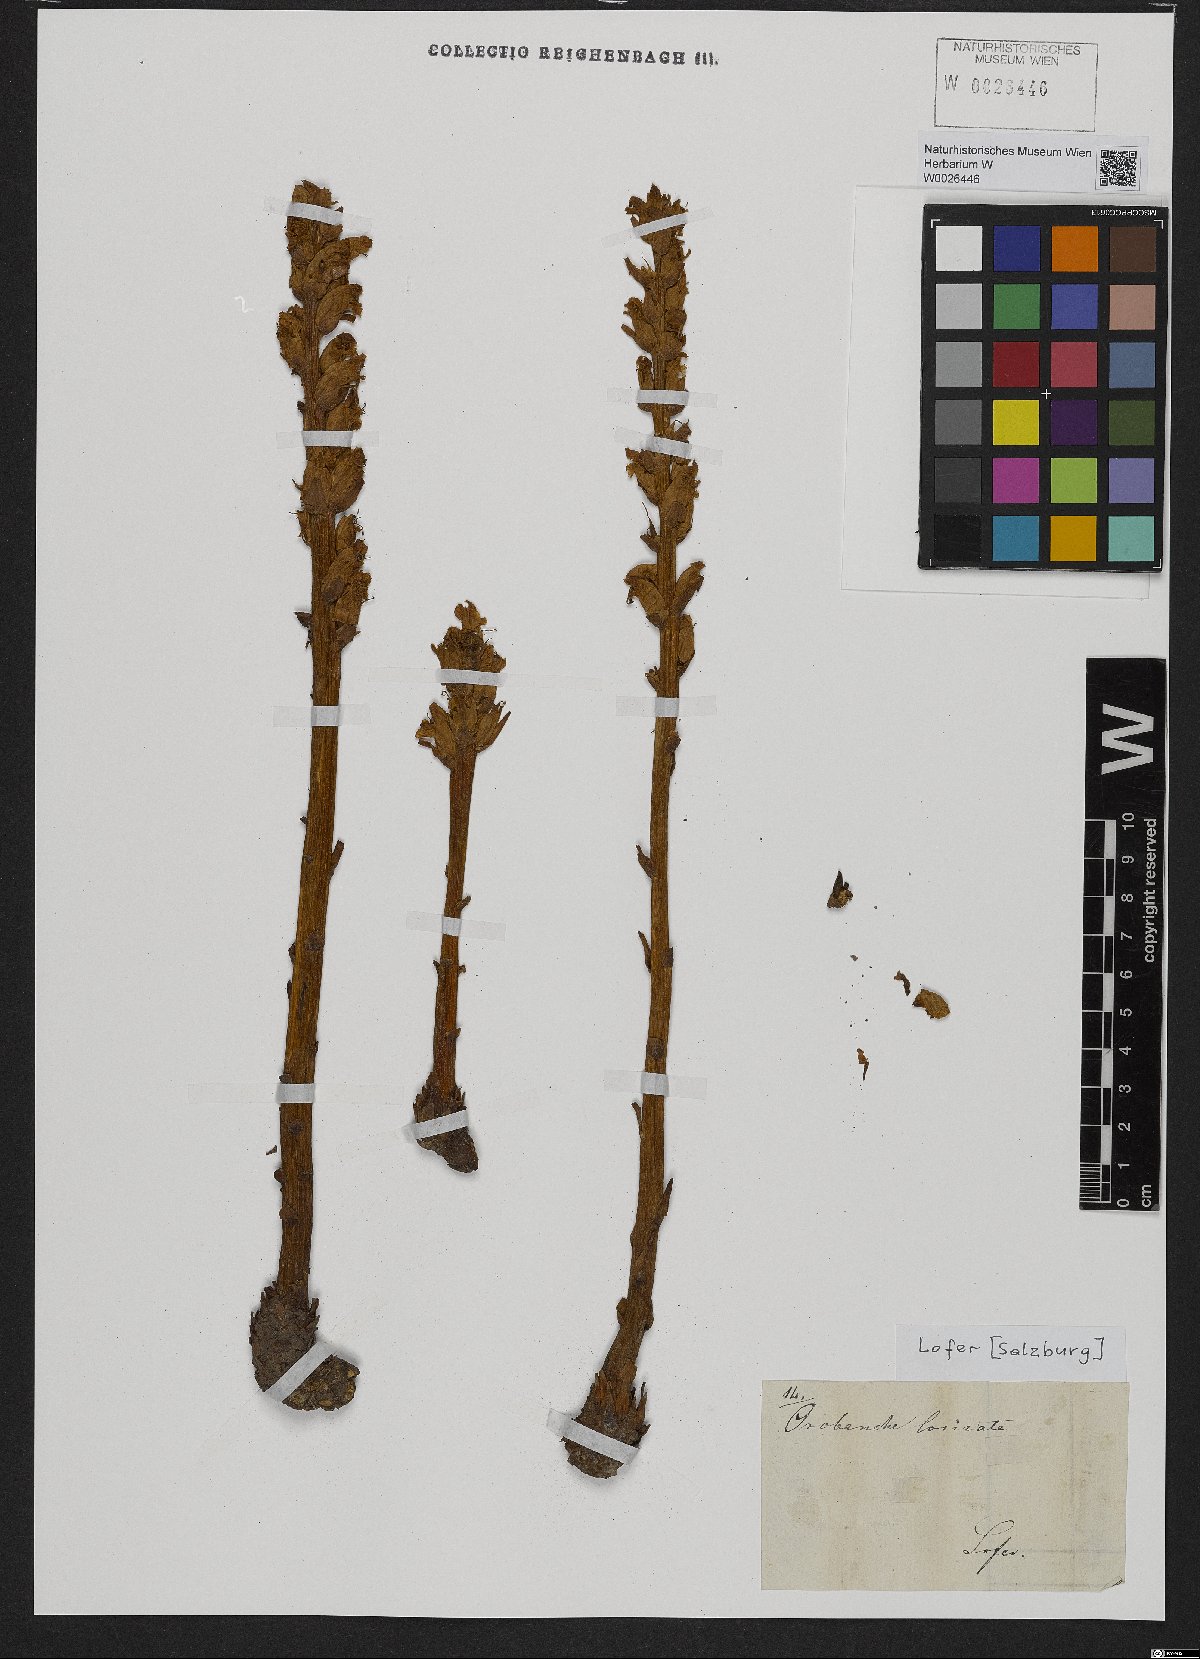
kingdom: Plantae
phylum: Tracheophyta
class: Magnoliopsida
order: Lamiales
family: Orobanchaceae
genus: Orobanche
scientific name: Orobanche artemisiae-campestris
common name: Oxtongue broomrape
